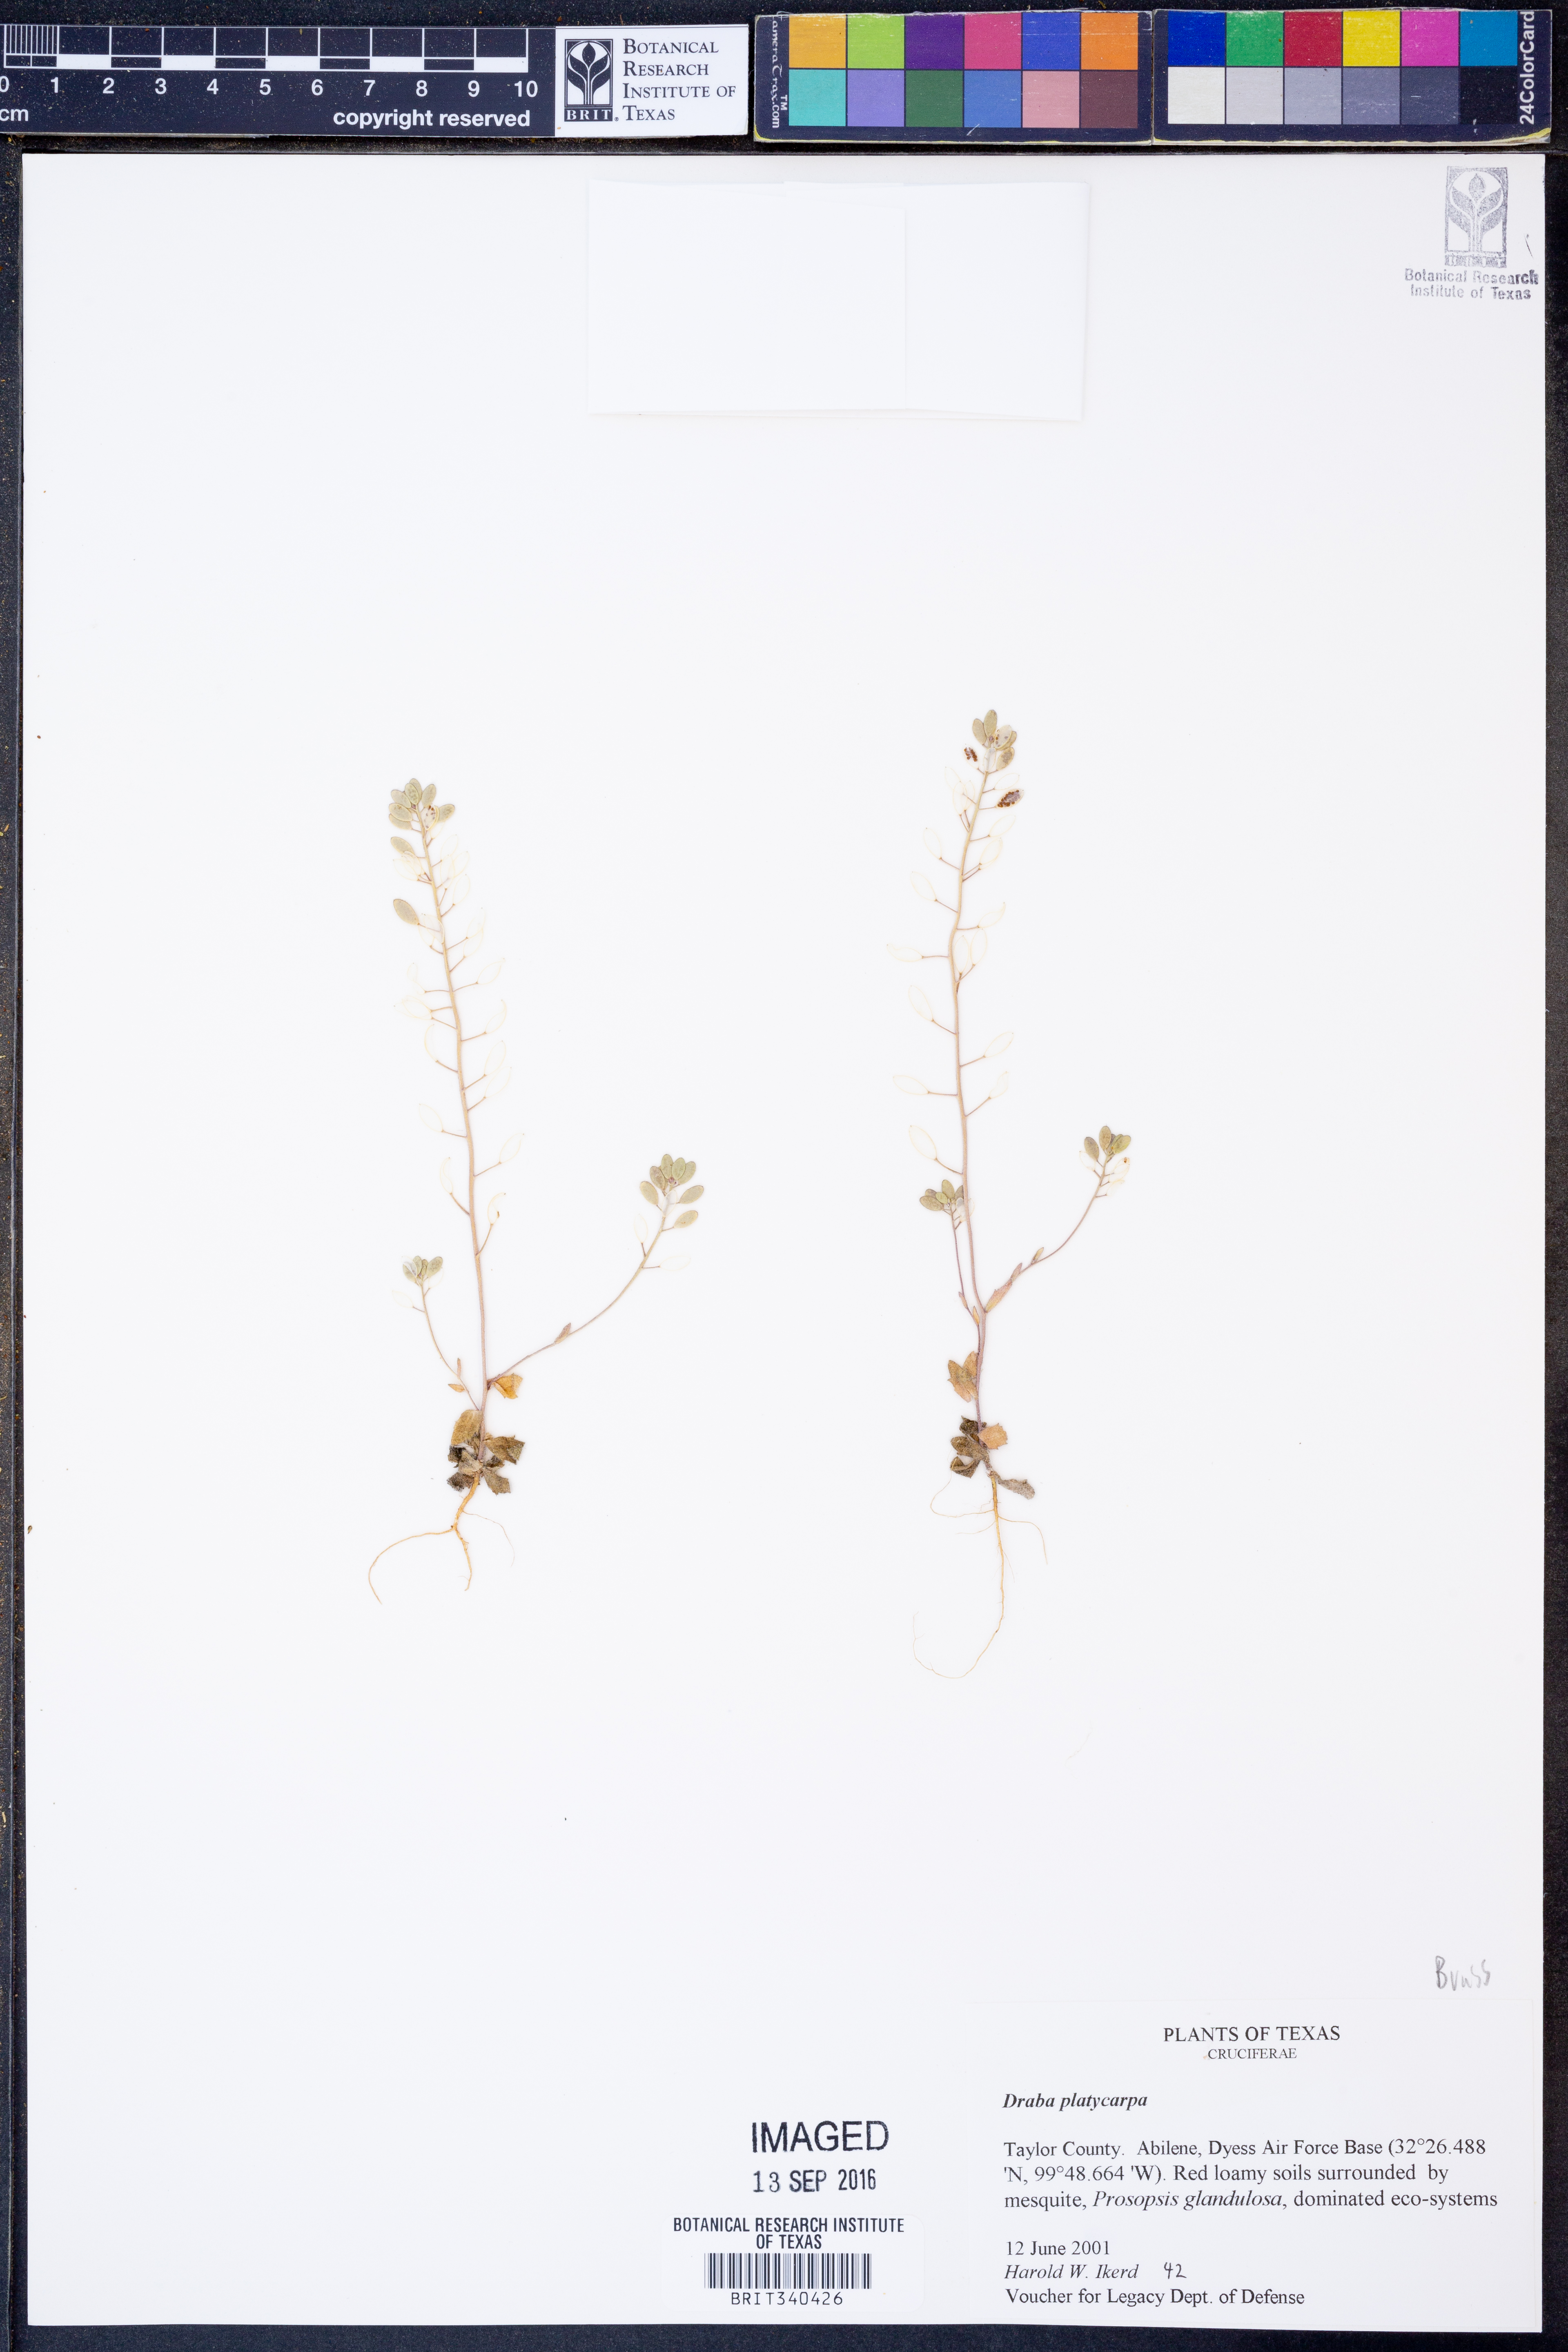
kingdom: Plantae
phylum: Tracheophyta
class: Magnoliopsida
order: Brassicales
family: Brassicaceae
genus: Tomostima
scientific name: Tomostima platycarpa
